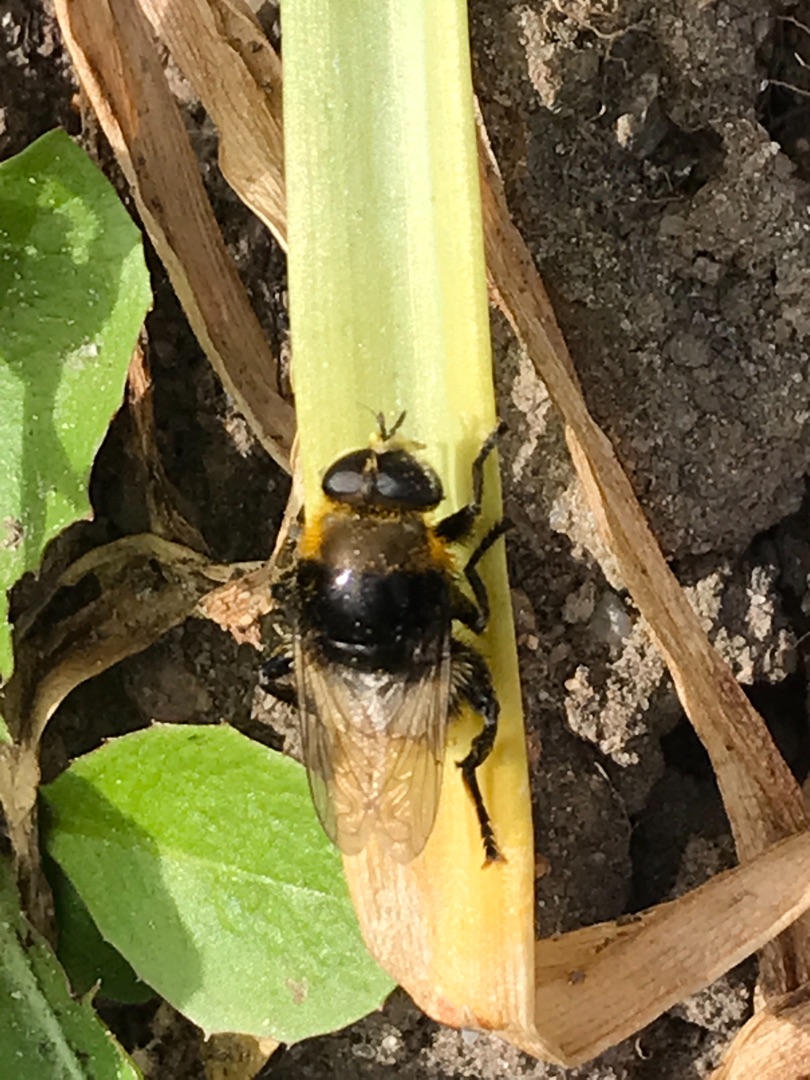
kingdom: Animalia
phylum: Arthropoda
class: Insecta
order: Diptera
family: Syrphidae
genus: Merodon
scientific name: Merodon equestris
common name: Stor narcisflue
